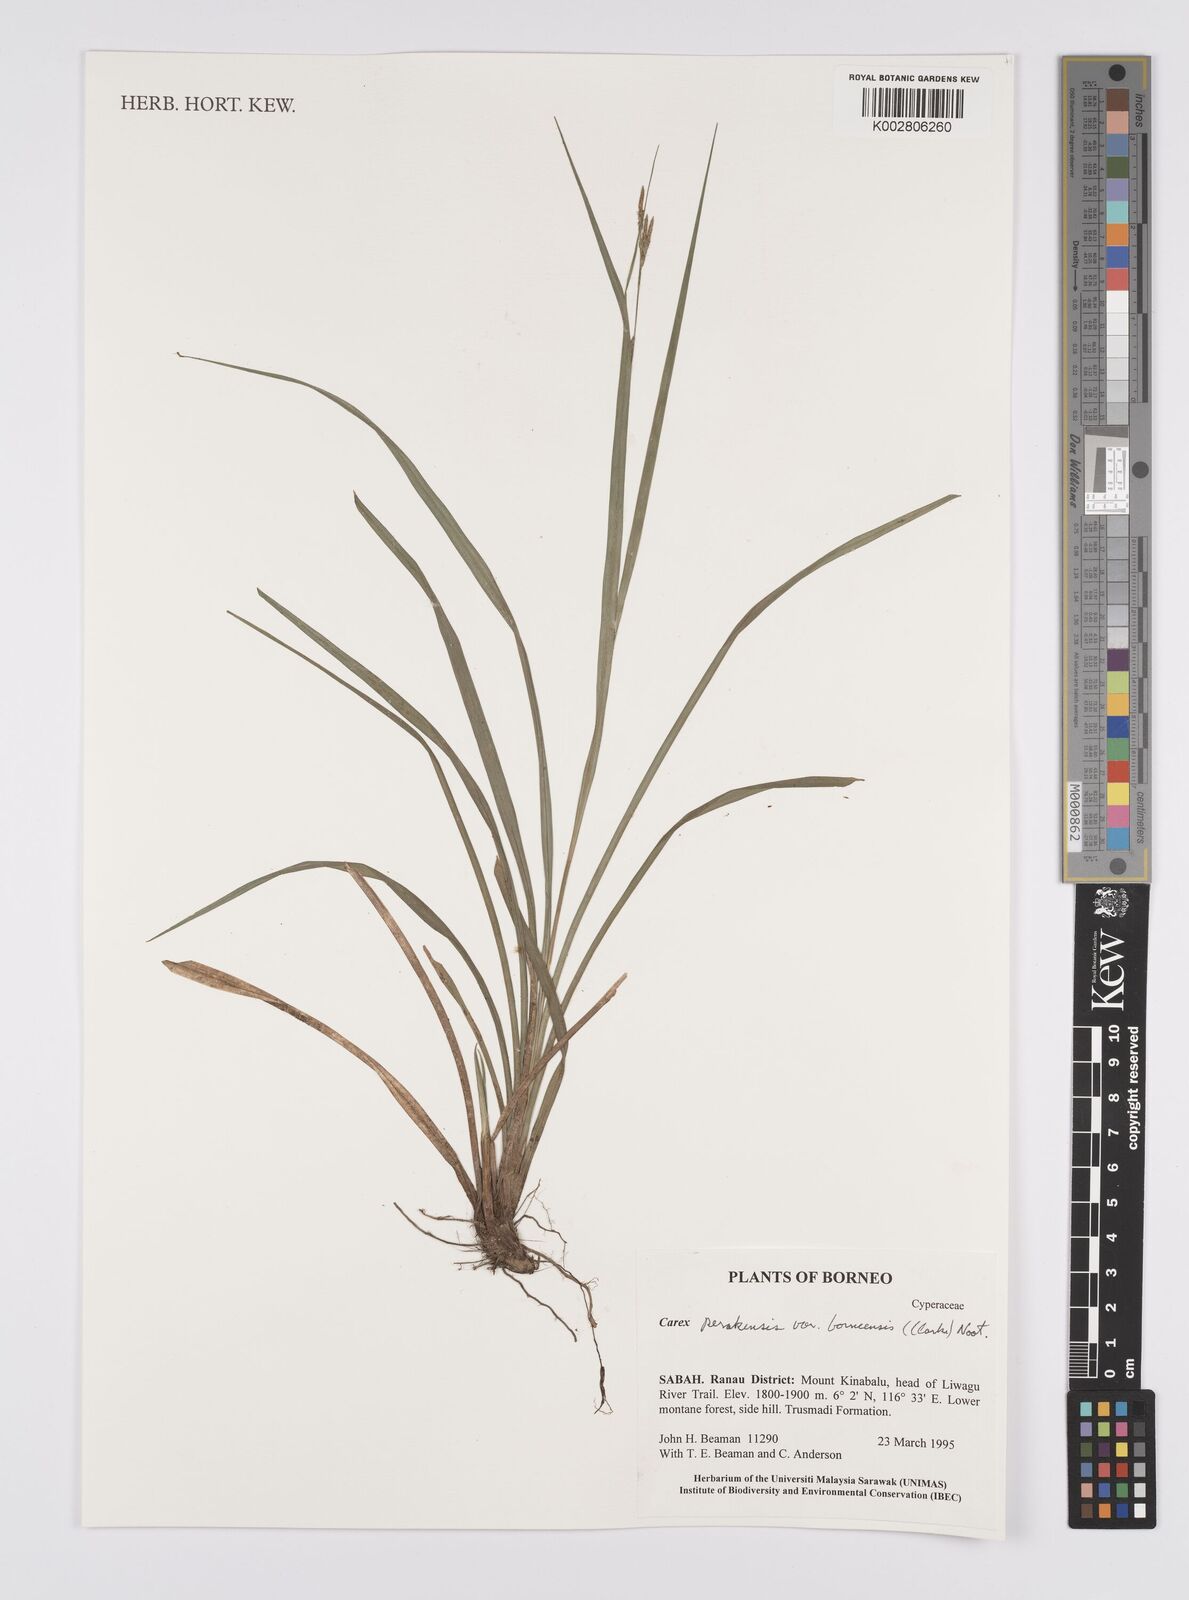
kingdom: Plantae
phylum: Tracheophyta
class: Liliopsida
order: Poales
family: Cyperaceae
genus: Carex
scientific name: Carex perakensis
